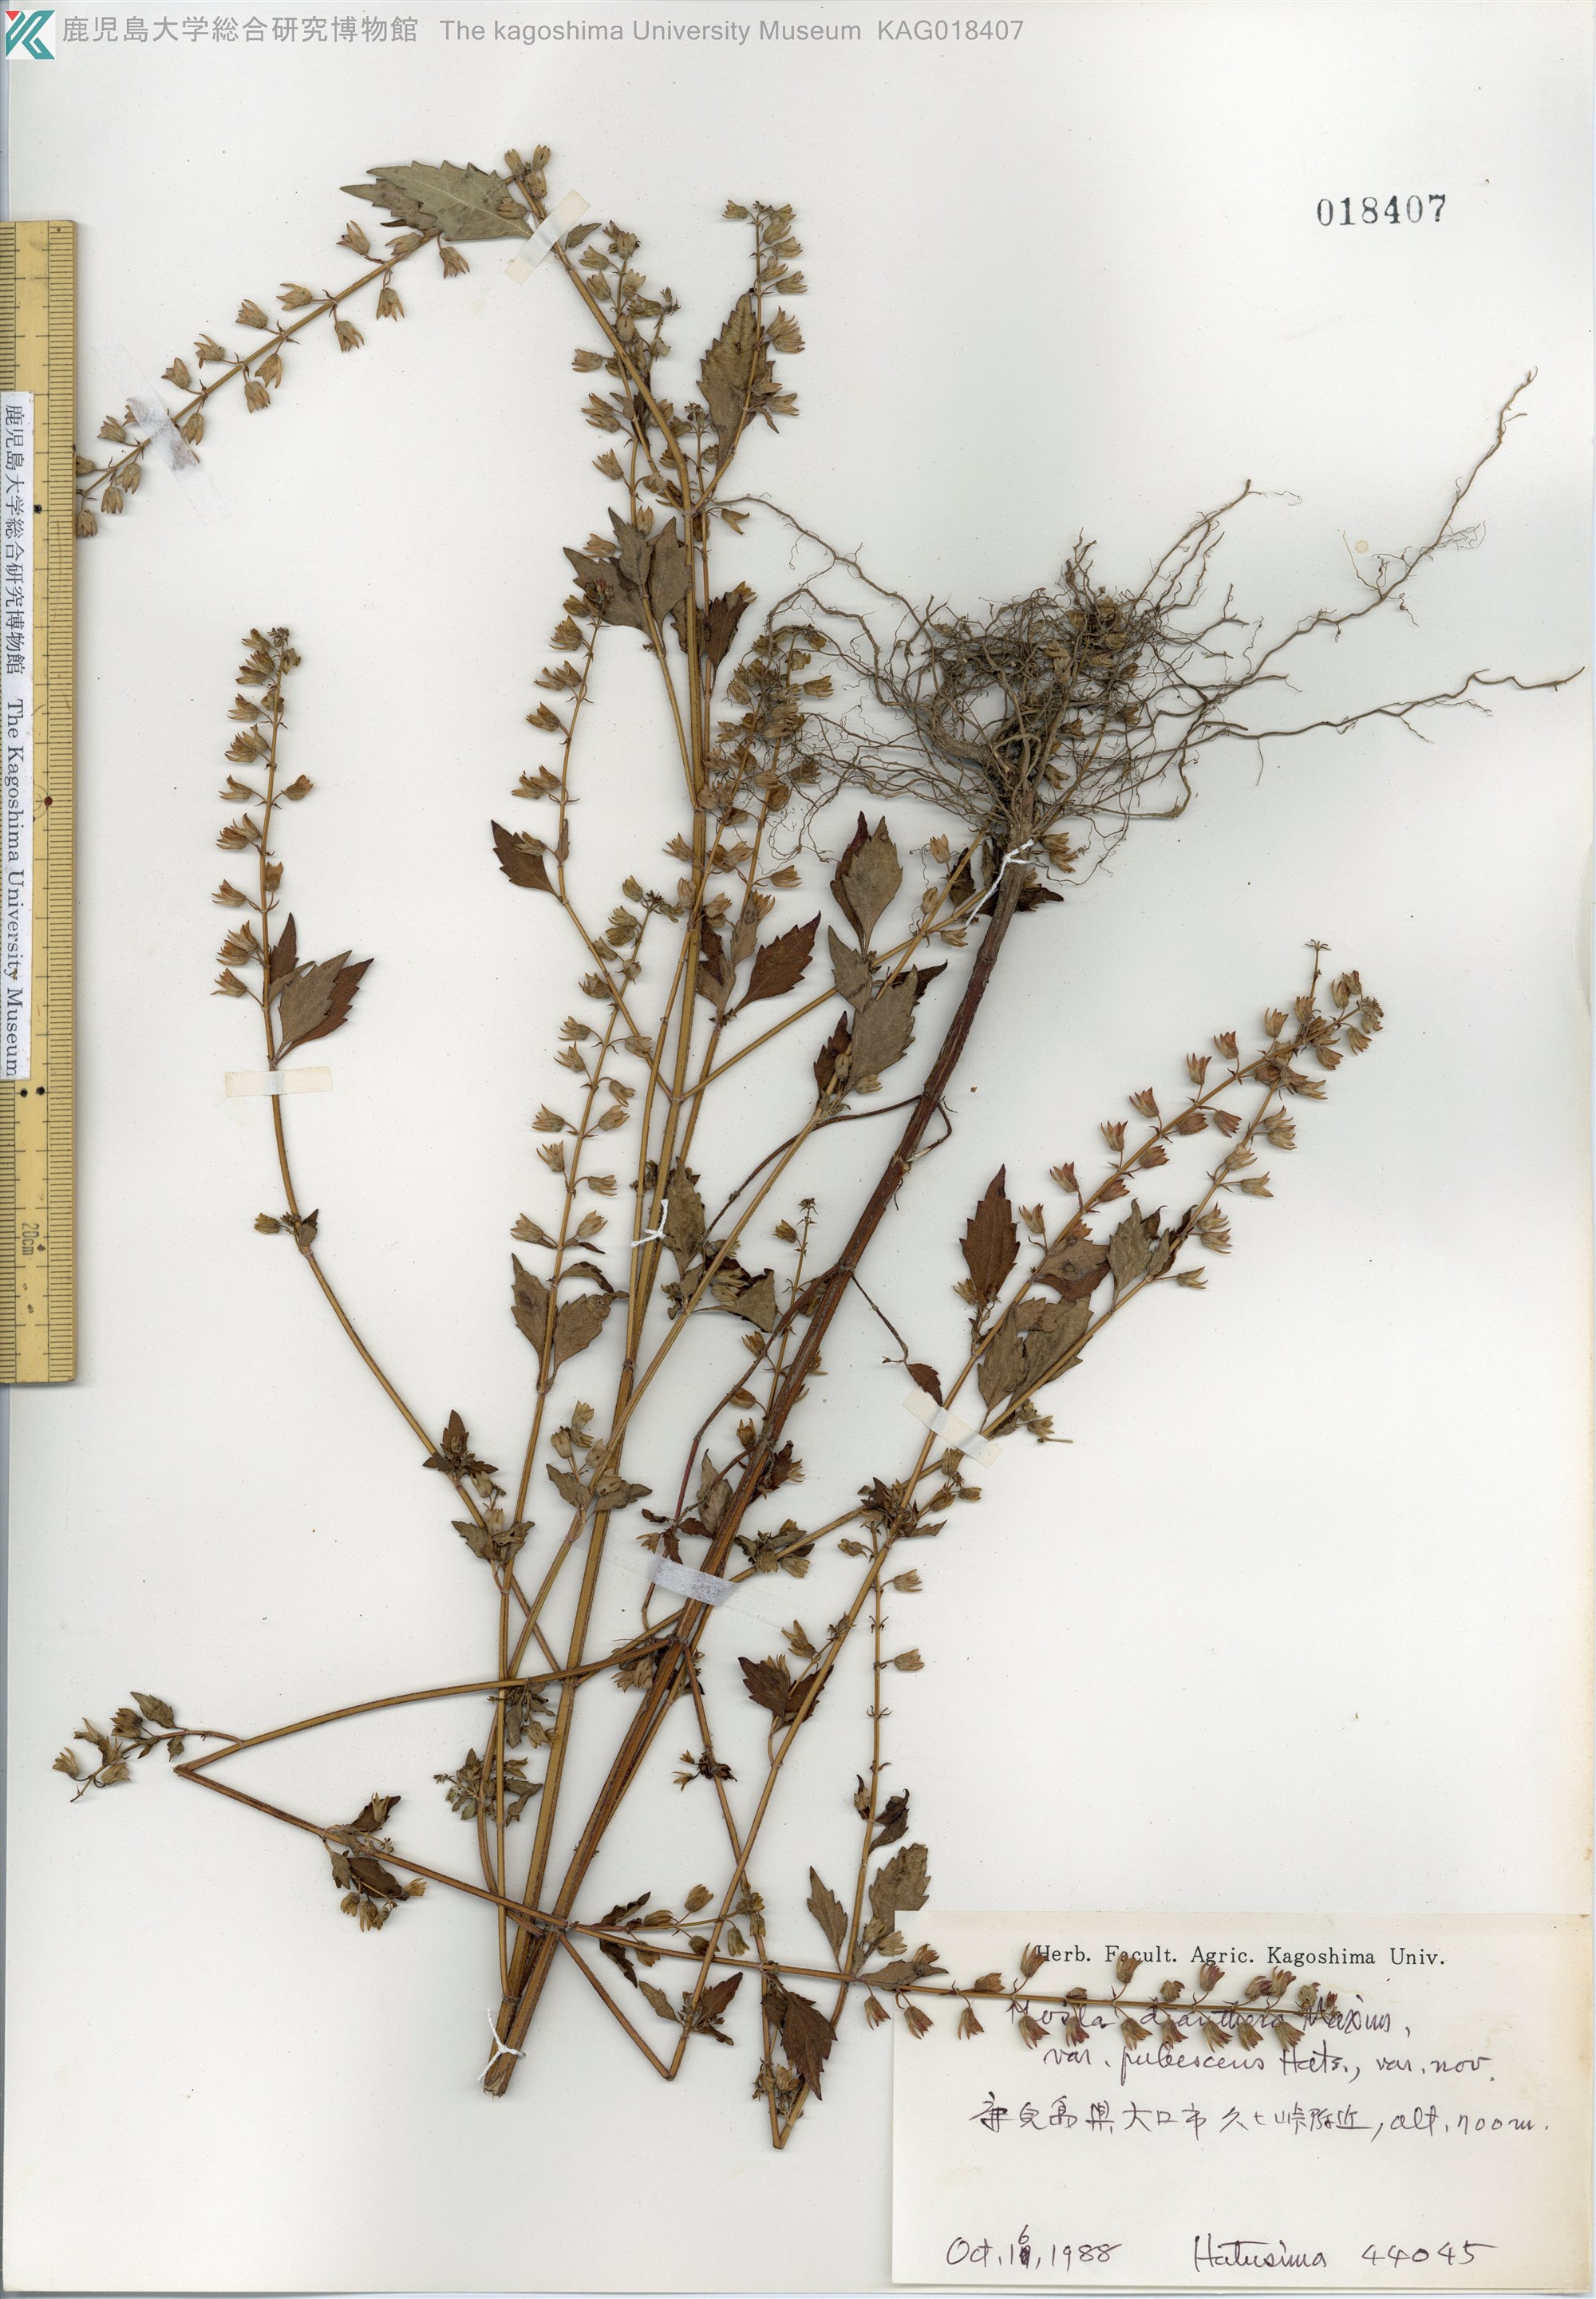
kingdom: Plantae
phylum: Tracheophyta
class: Magnoliopsida
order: Lamiales
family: Lamiaceae
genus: Mosla
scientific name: Mosla dianthera
